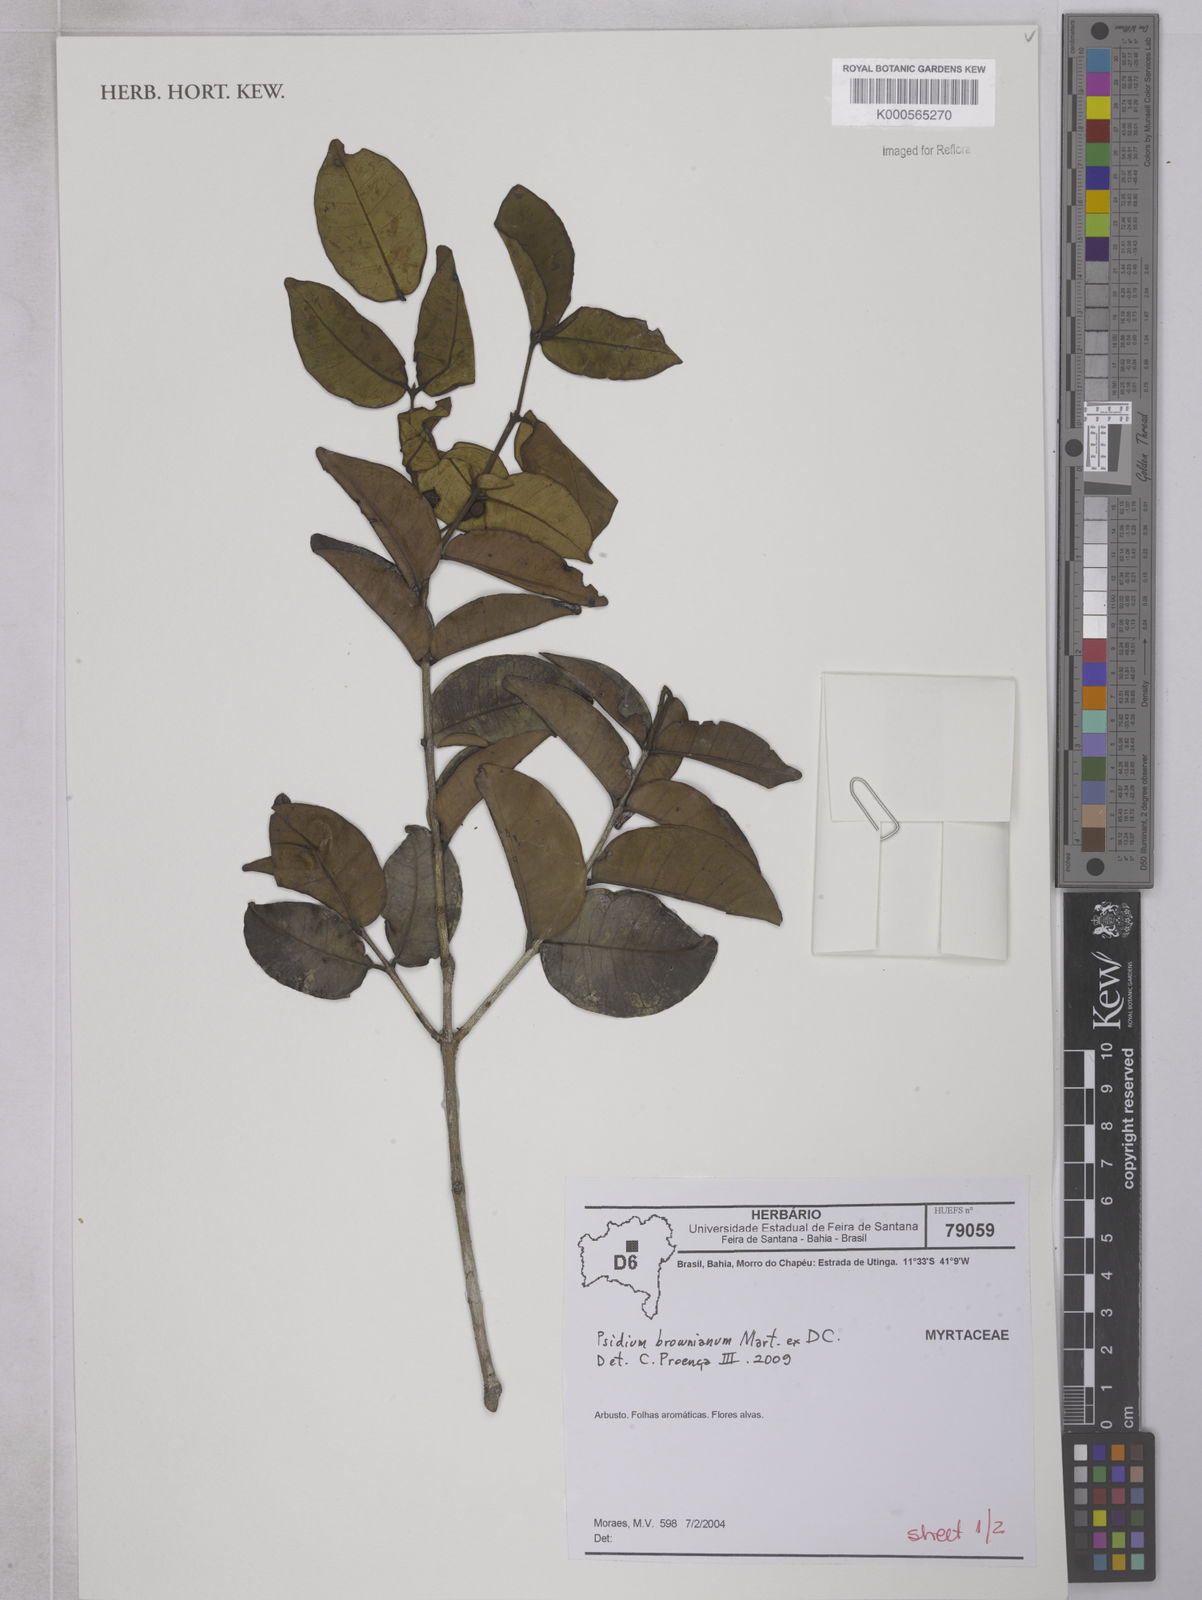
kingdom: Plantae
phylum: Tracheophyta
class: Magnoliopsida
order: Myrtales
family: Myrtaceae
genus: Psidium
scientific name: Psidium brownianum
